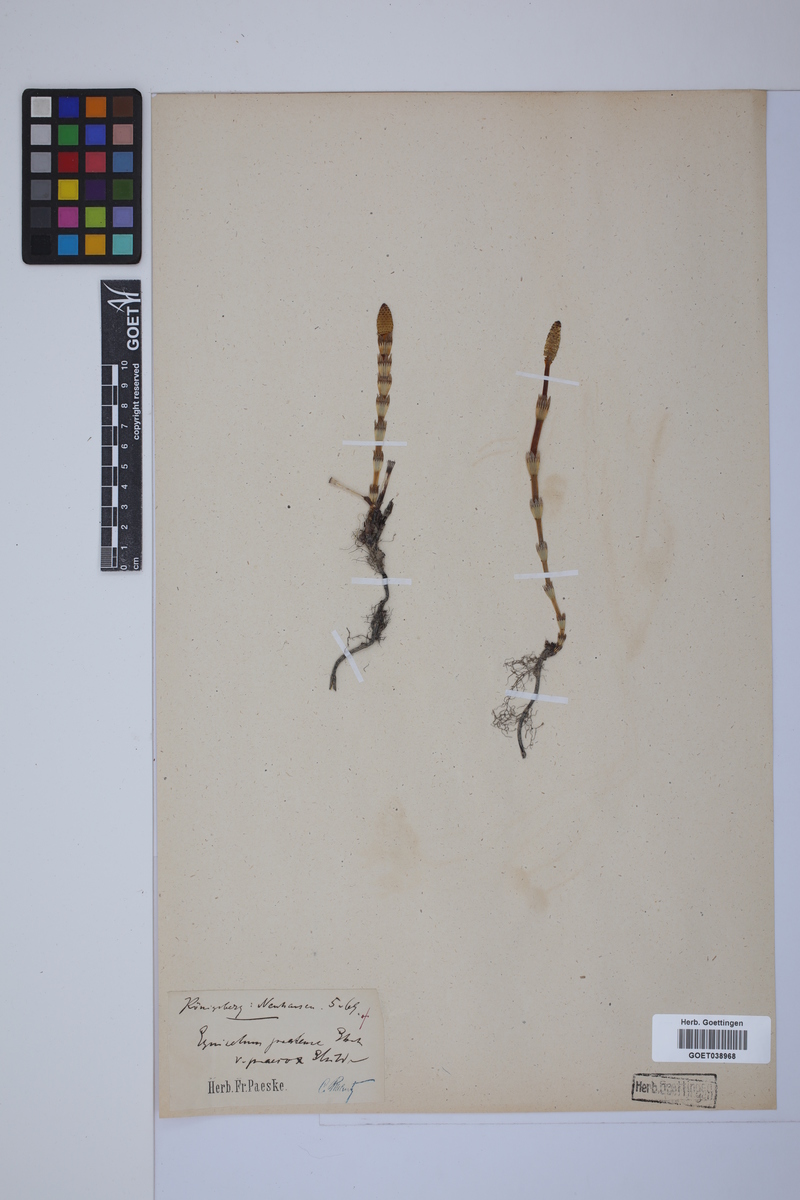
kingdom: Plantae
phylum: Tracheophyta
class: Polypodiopsida
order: Equisetales
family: Equisetaceae
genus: Equisetum
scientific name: Equisetum pratense
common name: Meadow horsetail
